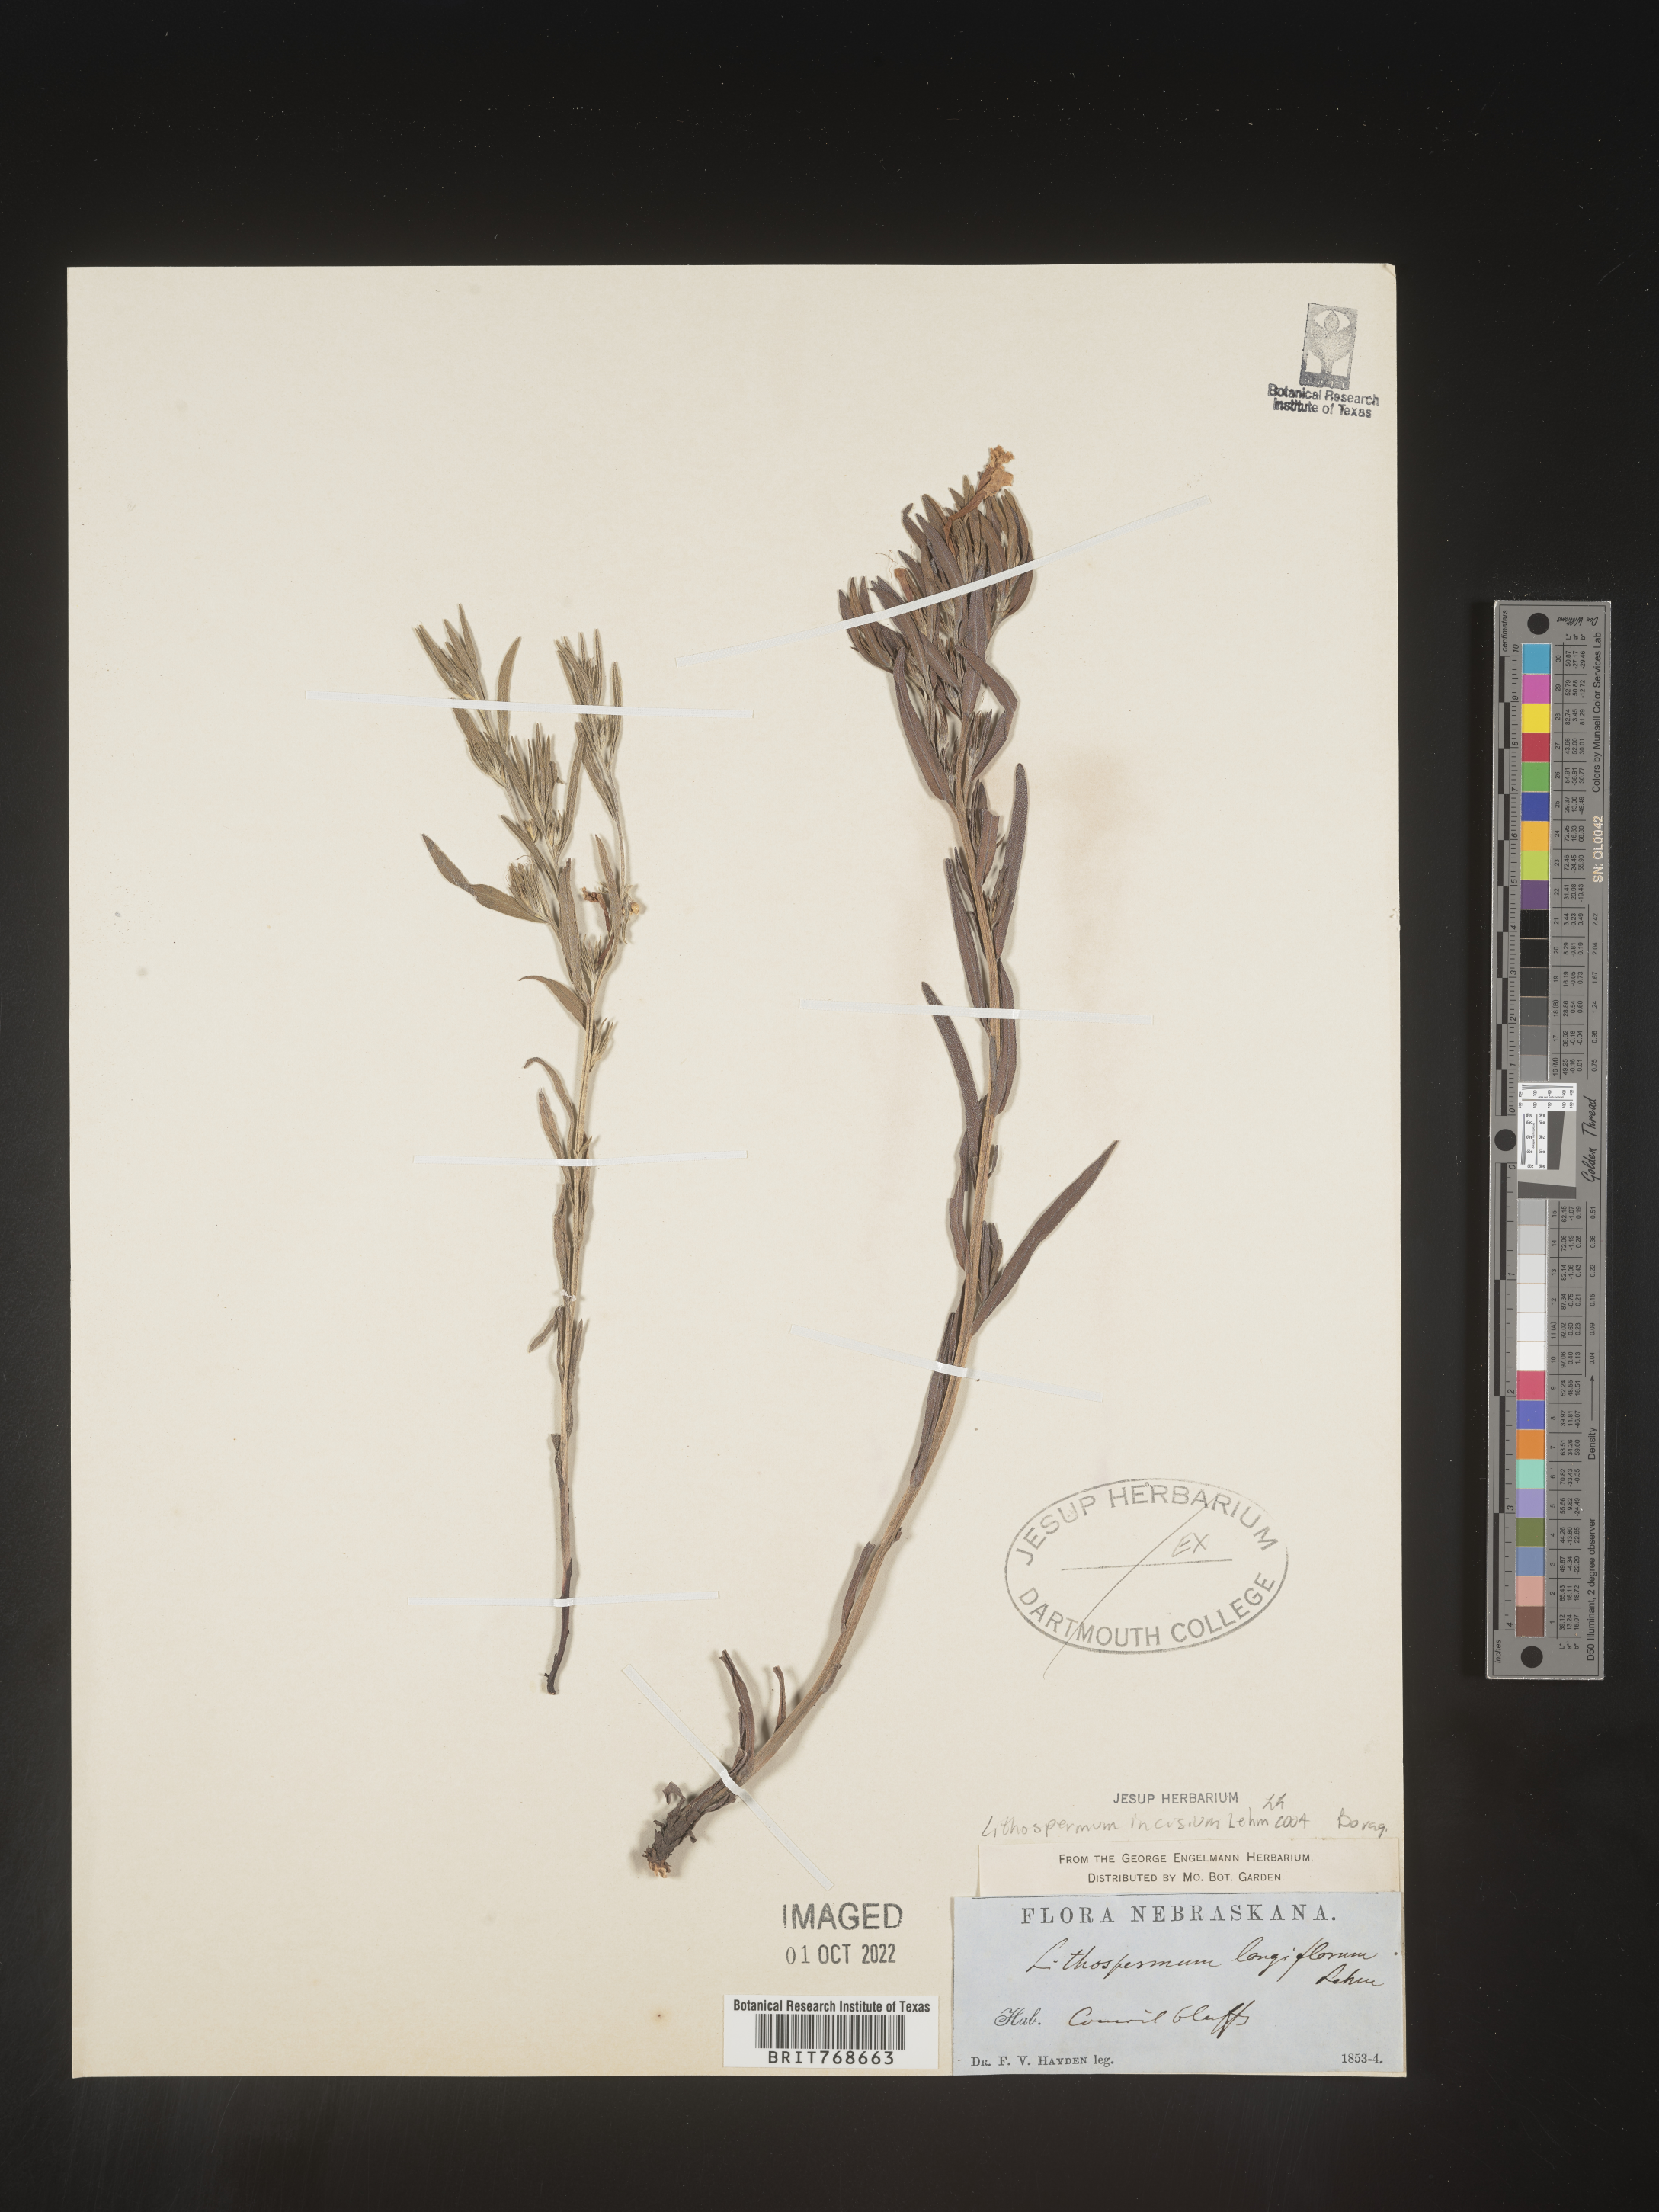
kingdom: Plantae
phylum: Tracheophyta
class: Magnoliopsida
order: Boraginales
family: Boraginaceae
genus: Lithospermum
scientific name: Lithospermum incisum
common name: Fringed gromwell
